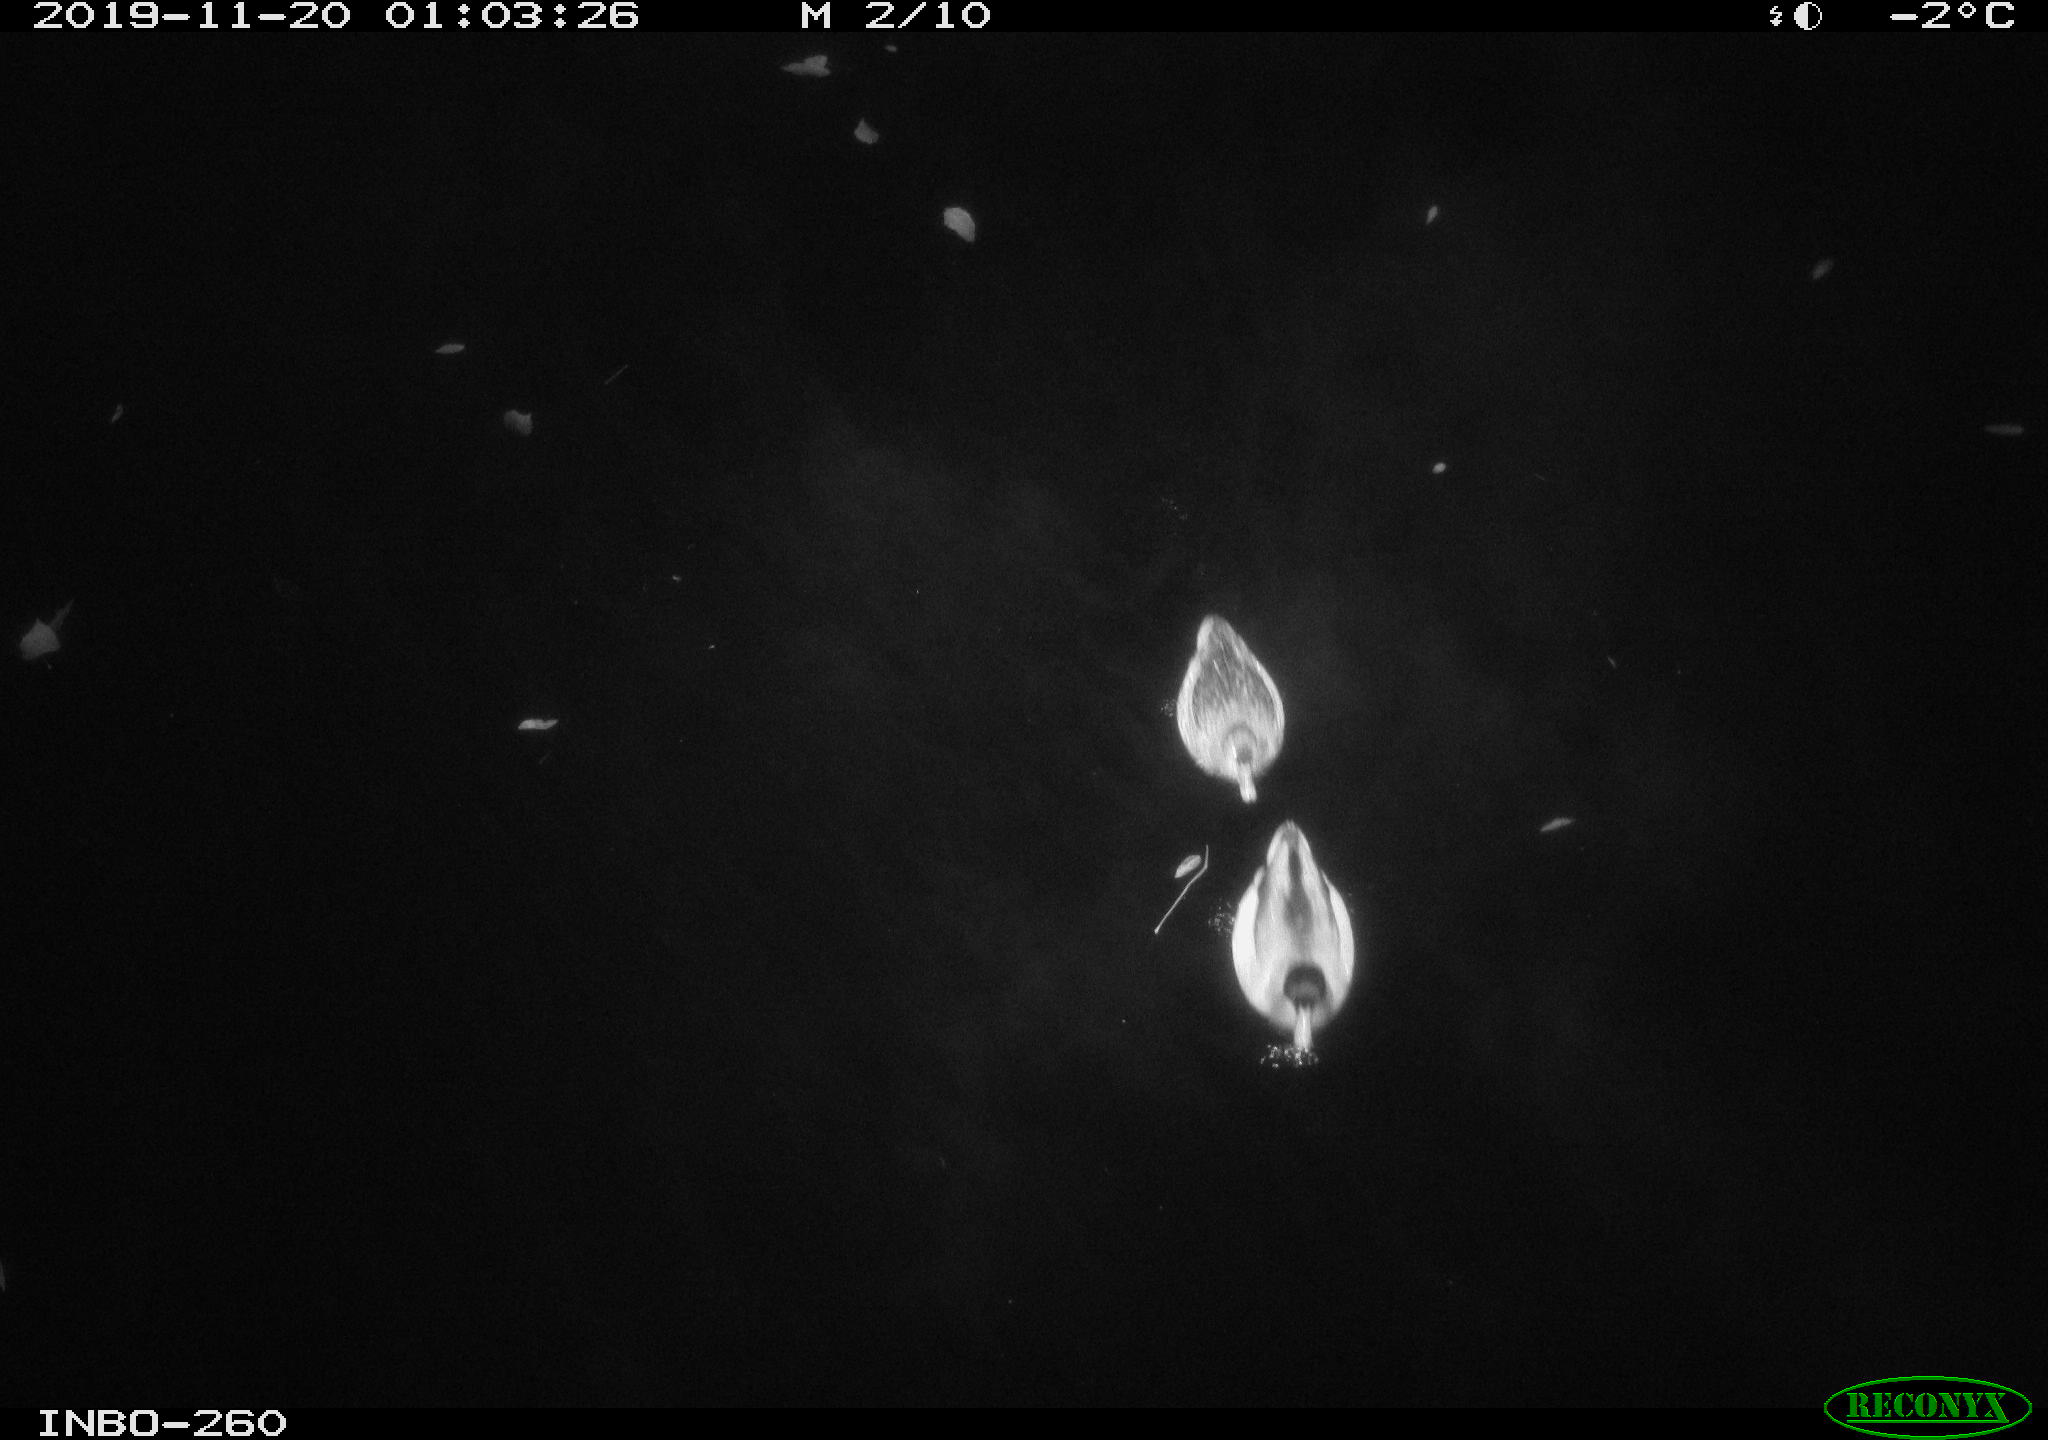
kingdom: Animalia
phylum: Chordata
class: Aves
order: Anseriformes
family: Anatidae
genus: Anas
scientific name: Anas platyrhynchos
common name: Mallard
